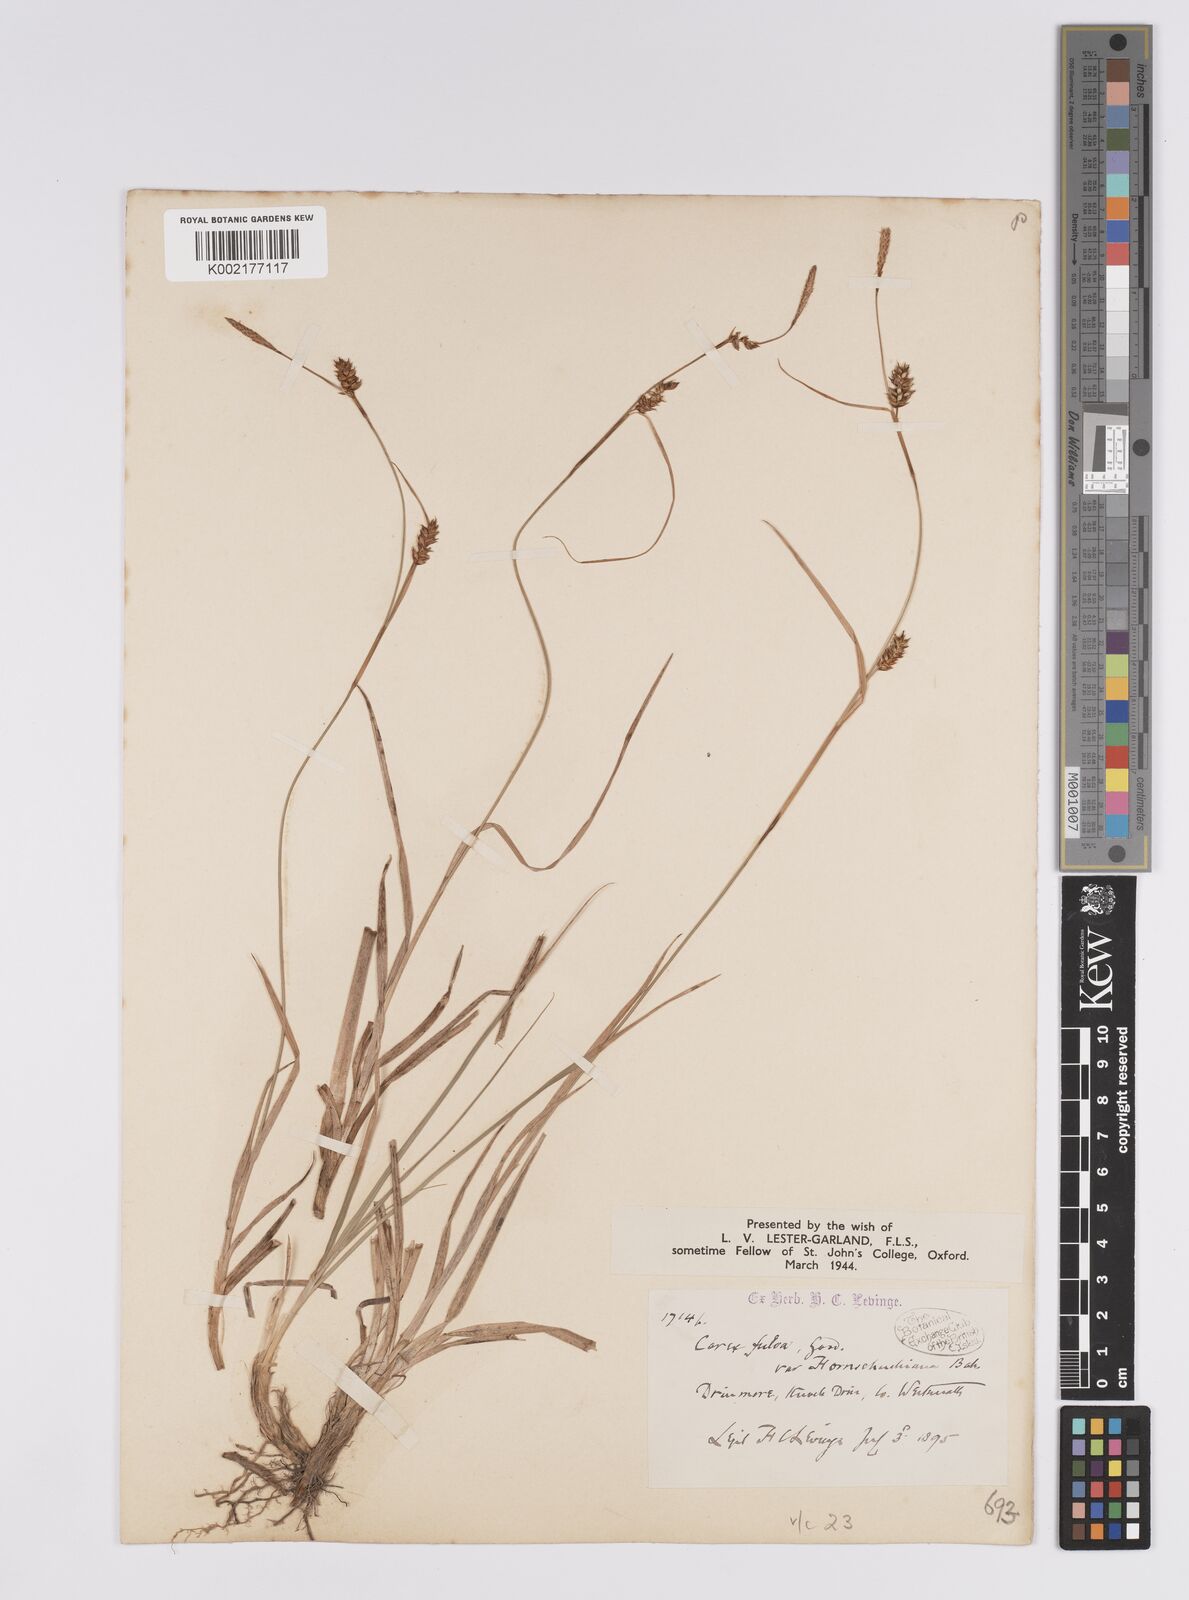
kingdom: Plantae
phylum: Tracheophyta
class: Liliopsida
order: Poales
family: Cyperaceae
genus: Carex
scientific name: Carex hostiana
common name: Tawny sedge
